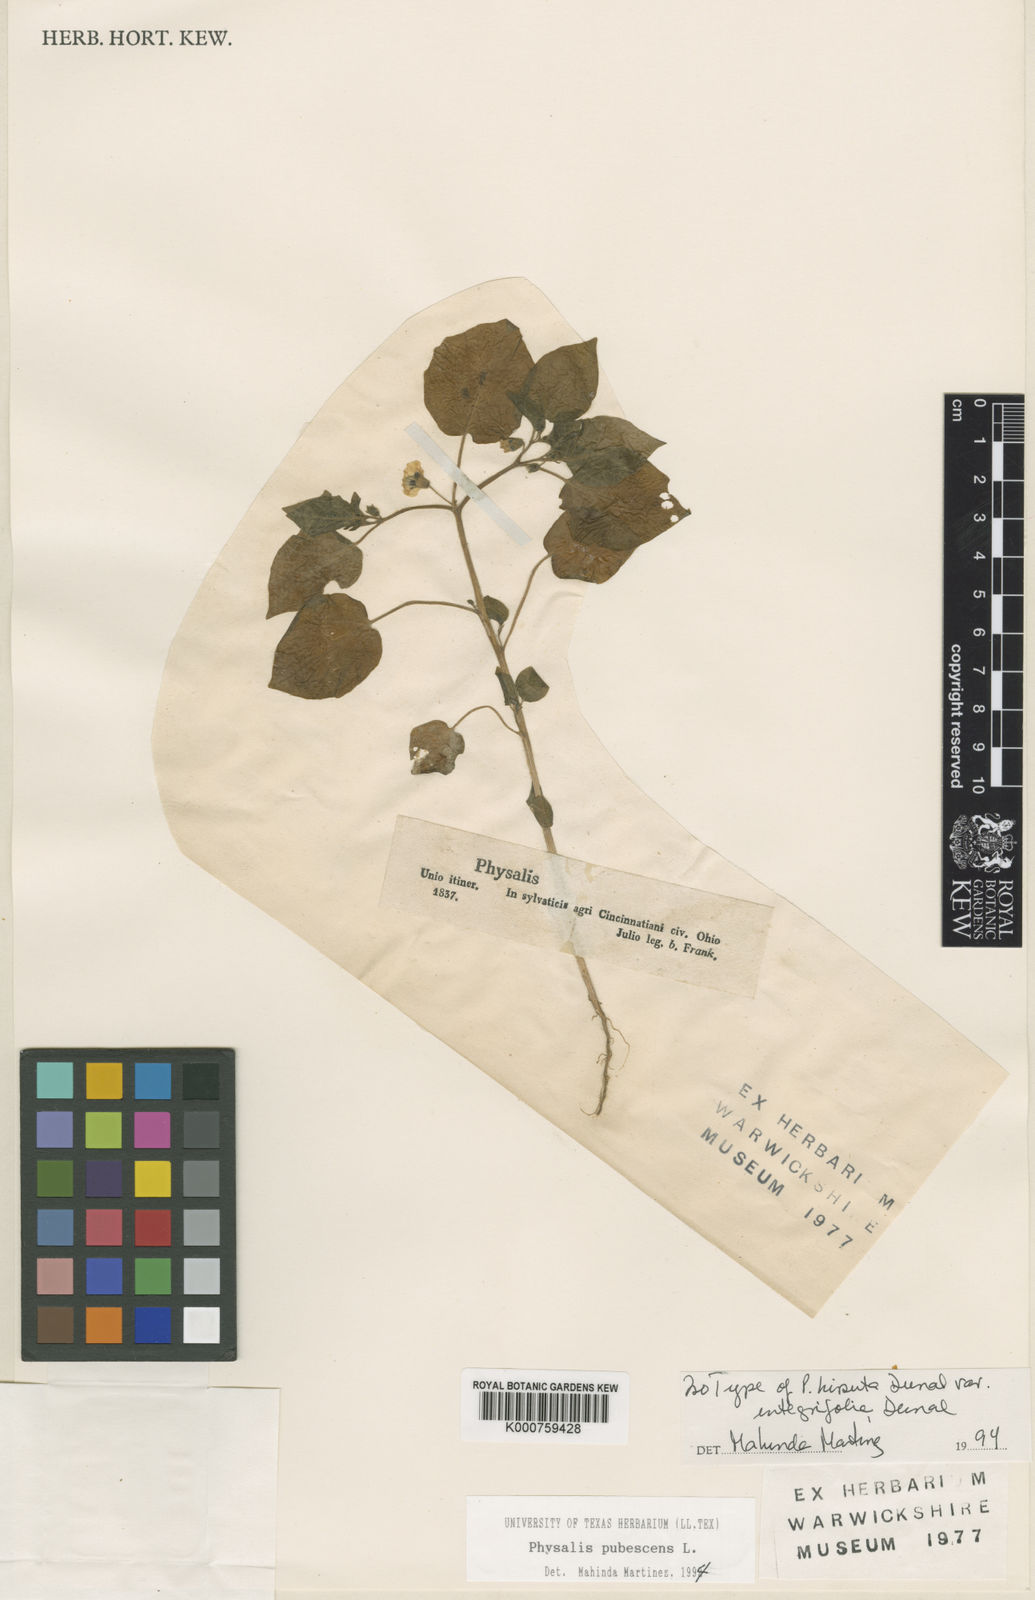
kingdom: Plantae
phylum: Tracheophyta
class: Magnoliopsida
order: Solanales
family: Solanaceae
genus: Physalis
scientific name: Physalis pubescens
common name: Downy ground-cherry
